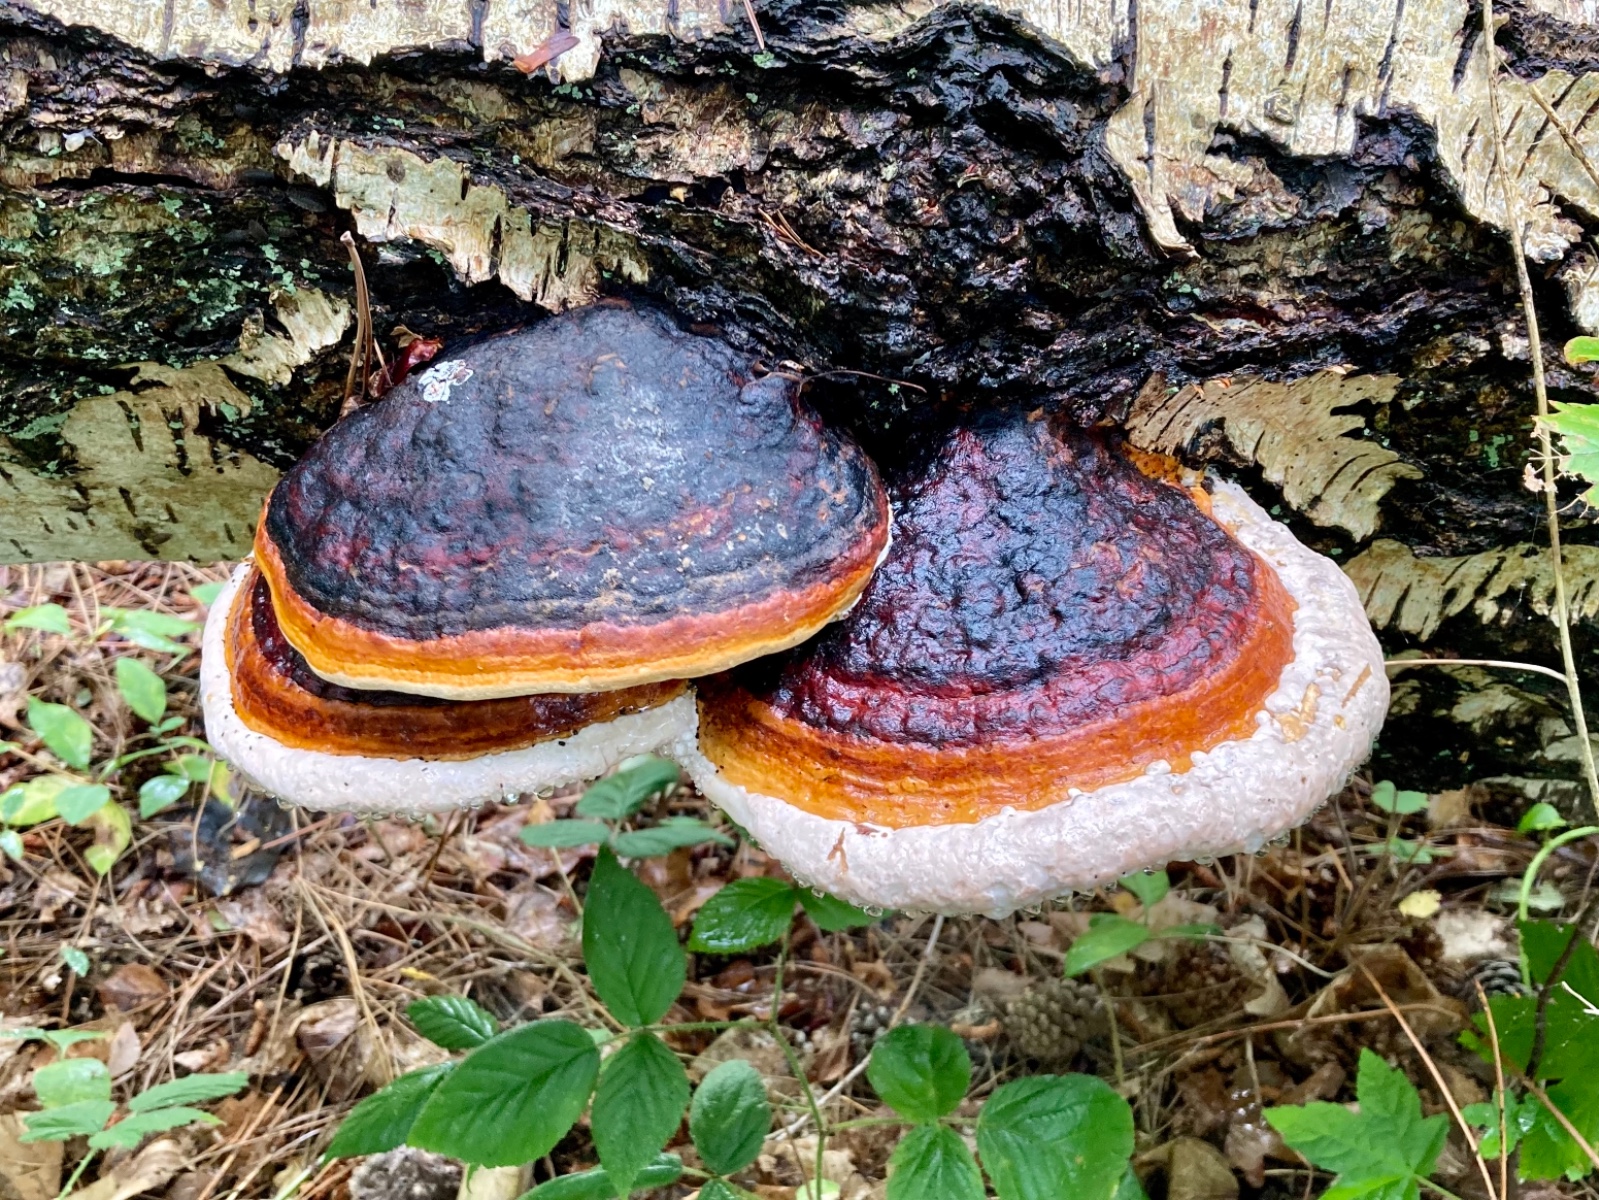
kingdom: Fungi
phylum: Basidiomycota
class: Agaricomycetes
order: Polyporales
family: Fomitopsidaceae
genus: Fomitopsis
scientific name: Fomitopsis pinicola
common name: randbæltet hovporesvamp
